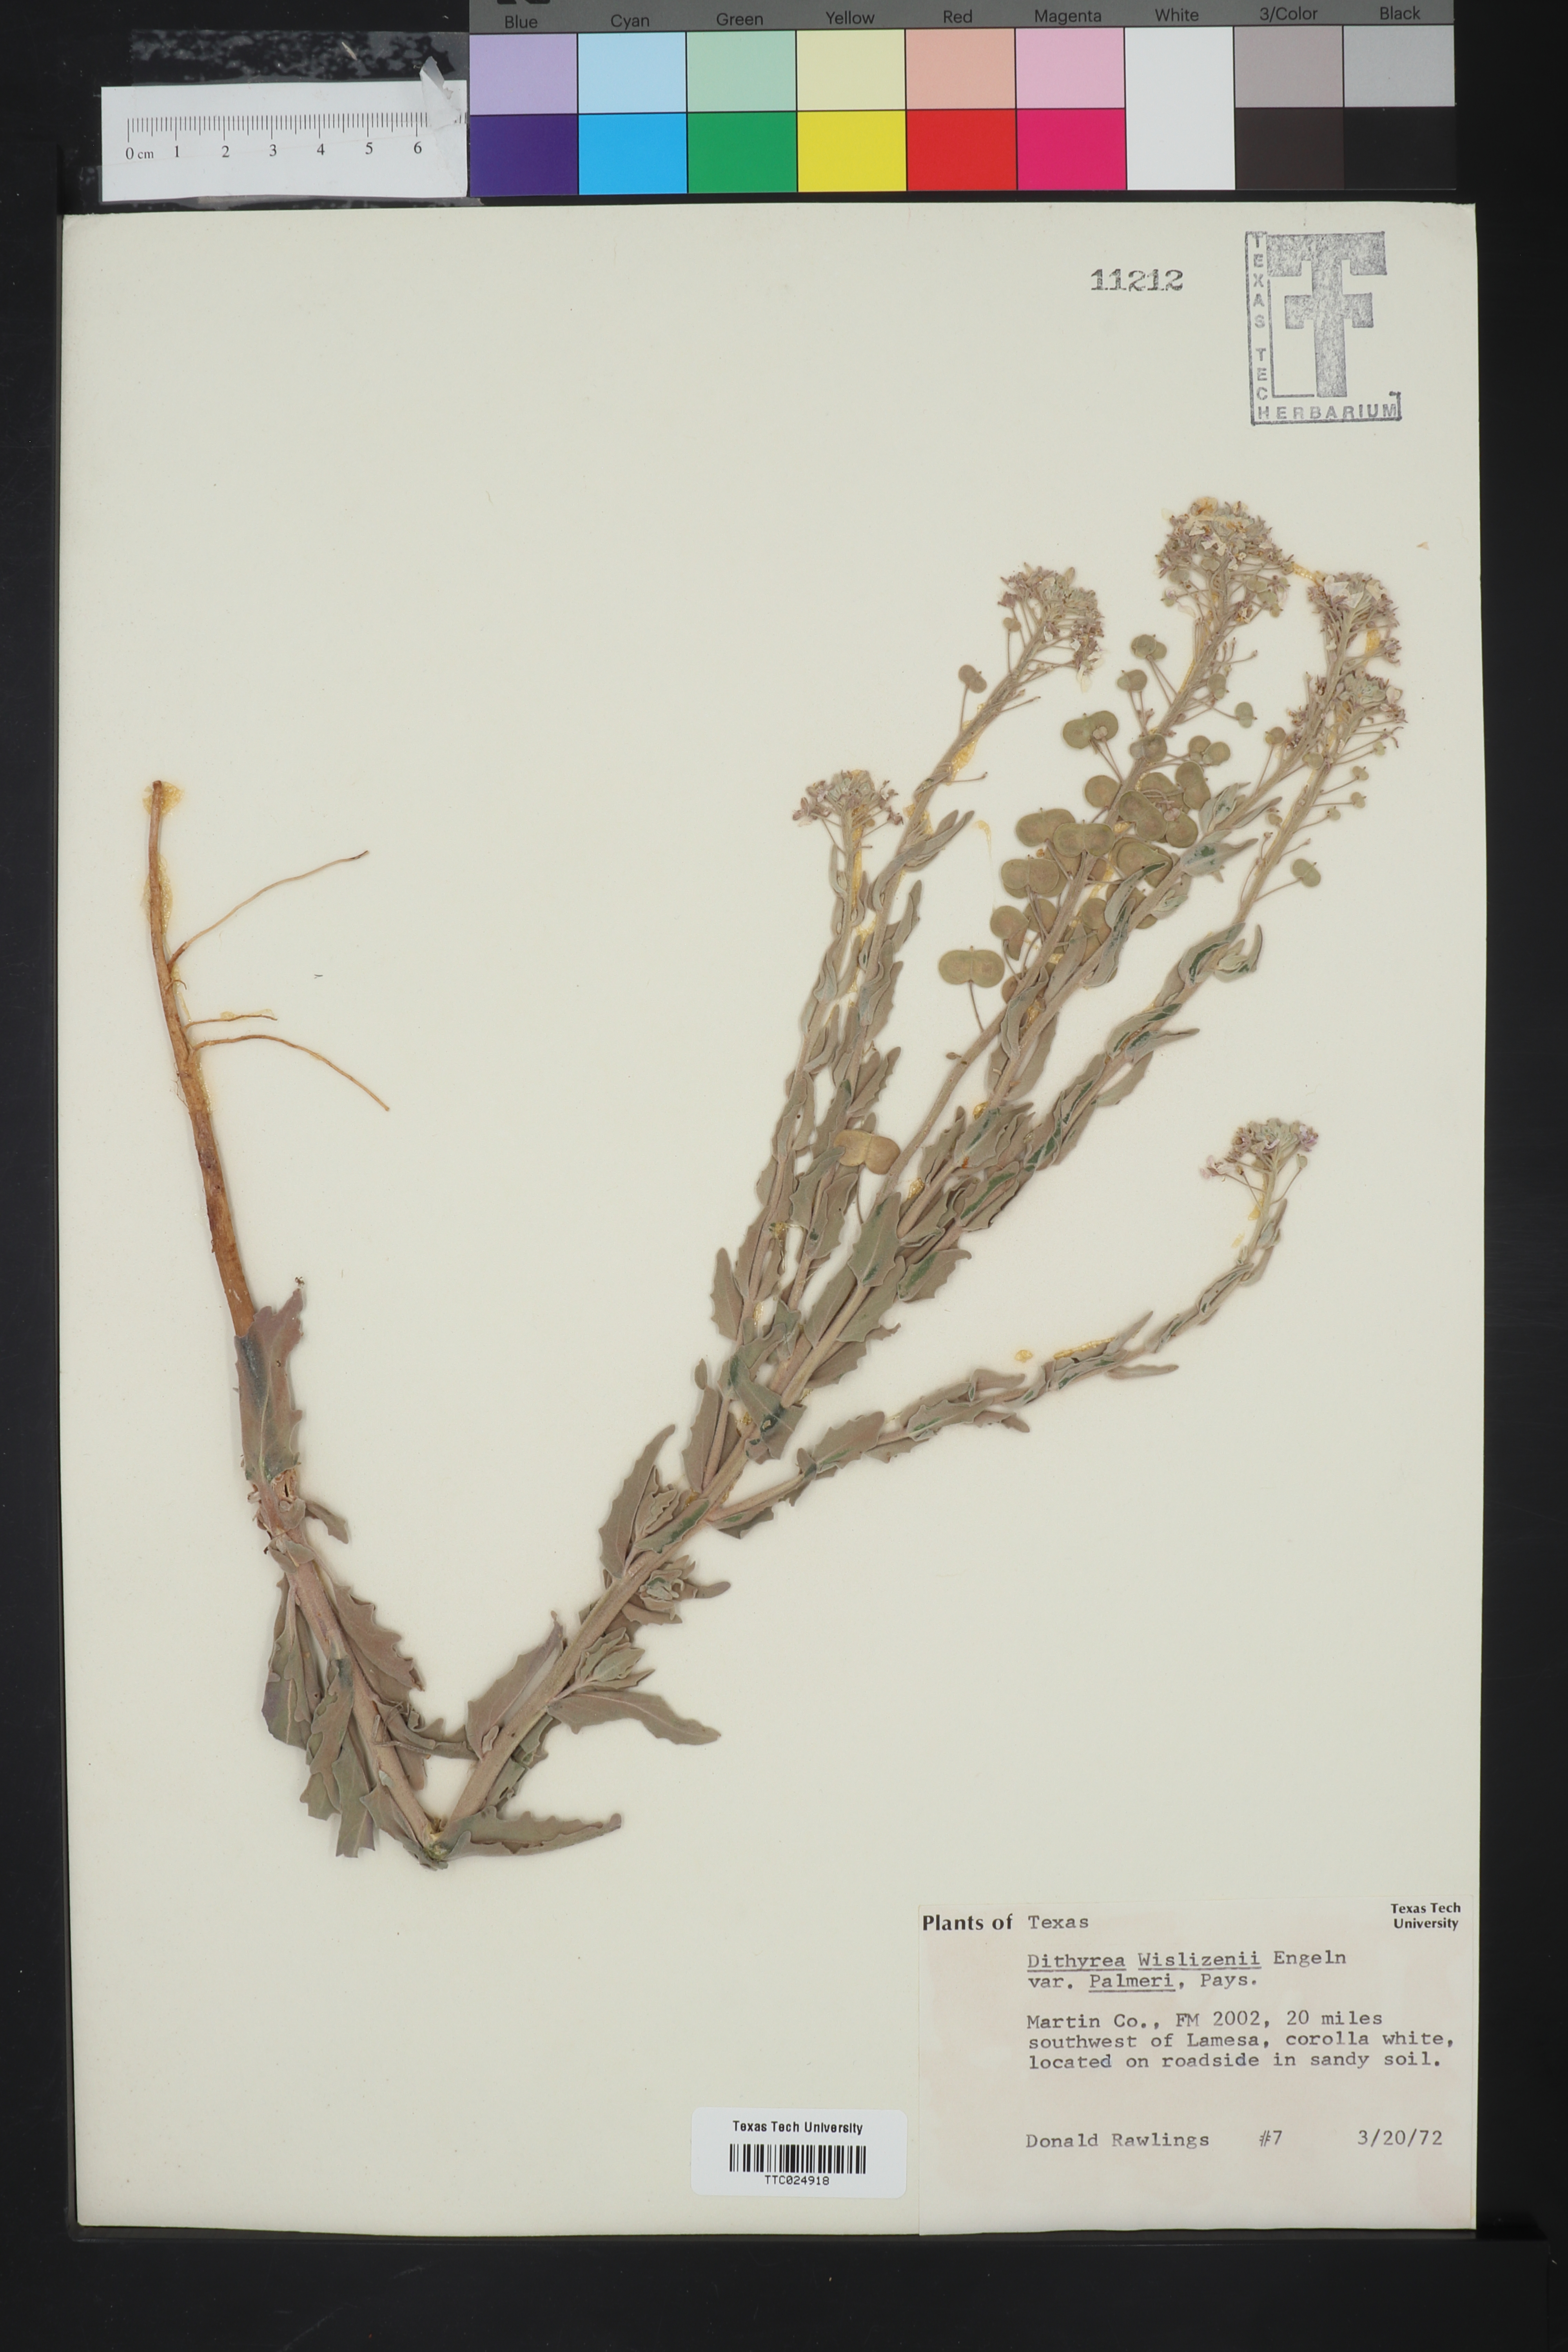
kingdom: Plantae
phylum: Tracheophyta
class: Magnoliopsida
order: Brassicales
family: Brassicaceae
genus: Dimorphocarpa
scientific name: Dimorphocarpa wislizenii
